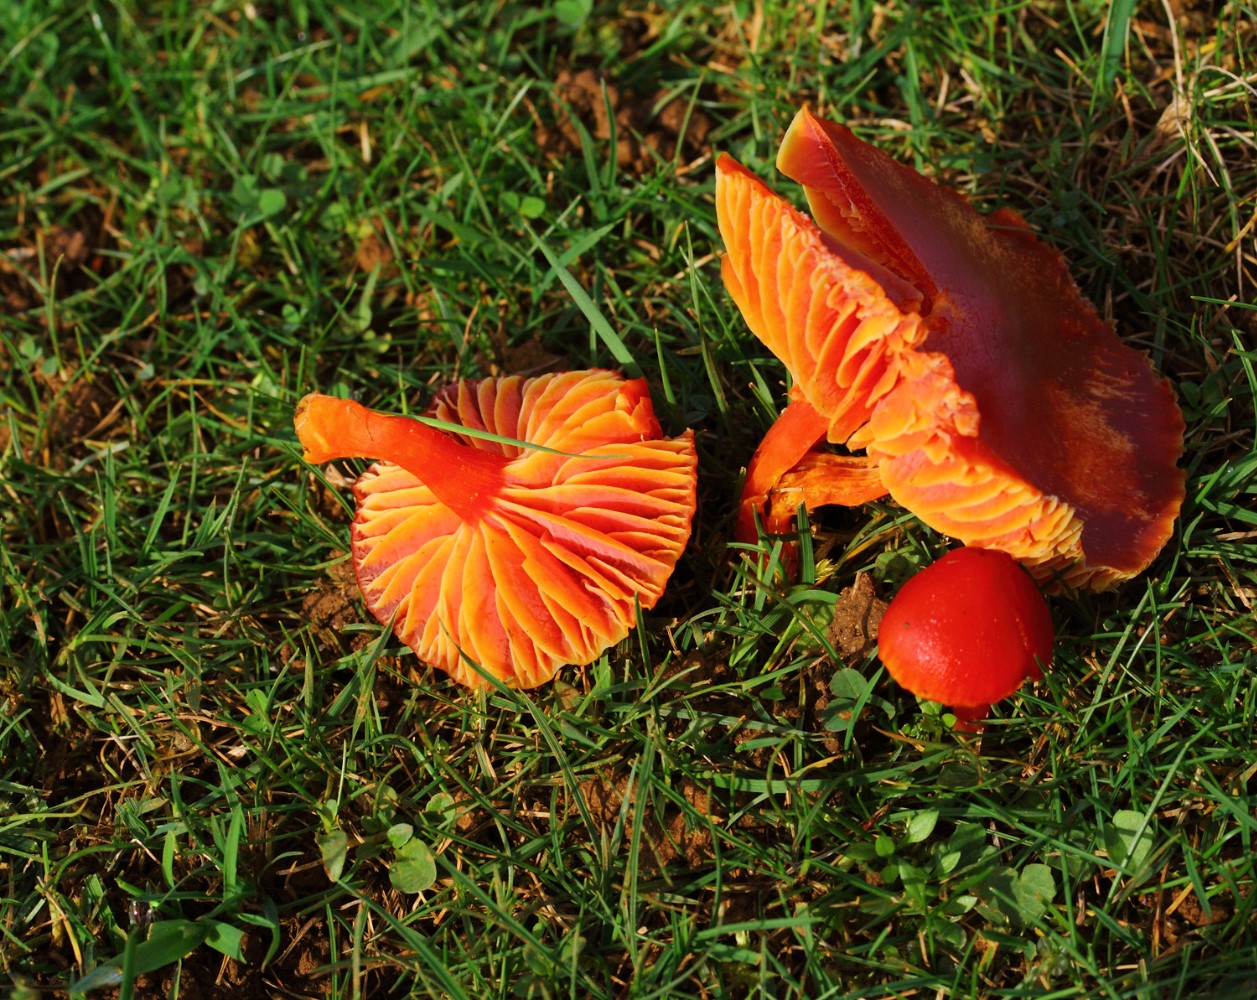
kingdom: Fungi
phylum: Basidiomycota
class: Agaricomycetes
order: Agaricales
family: Hygrophoraceae
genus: Hygrocybe
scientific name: Hygrocybe coccinea
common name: cinnober-vokshat
